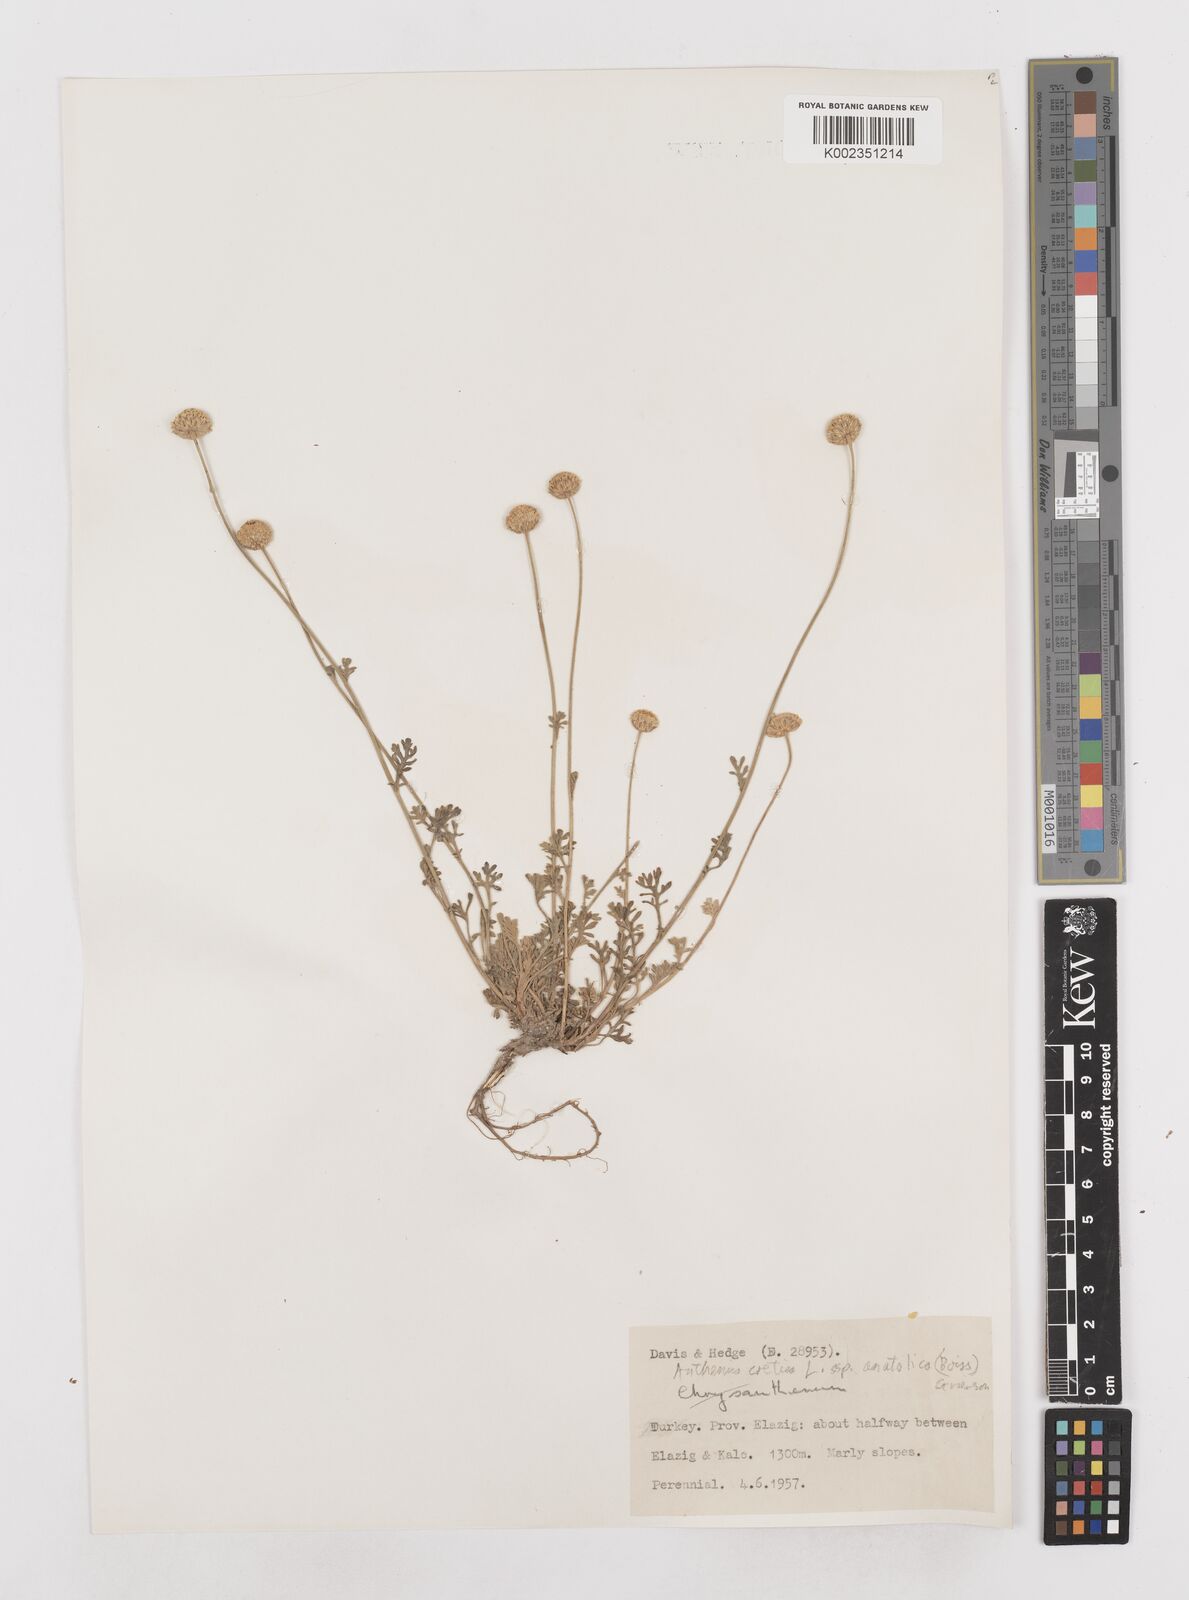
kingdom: Plantae
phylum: Tracheophyta
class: Magnoliopsida
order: Asterales
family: Asteraceae
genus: Anthemis
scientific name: Anthemis cretica
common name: Mountain dog-daisy
